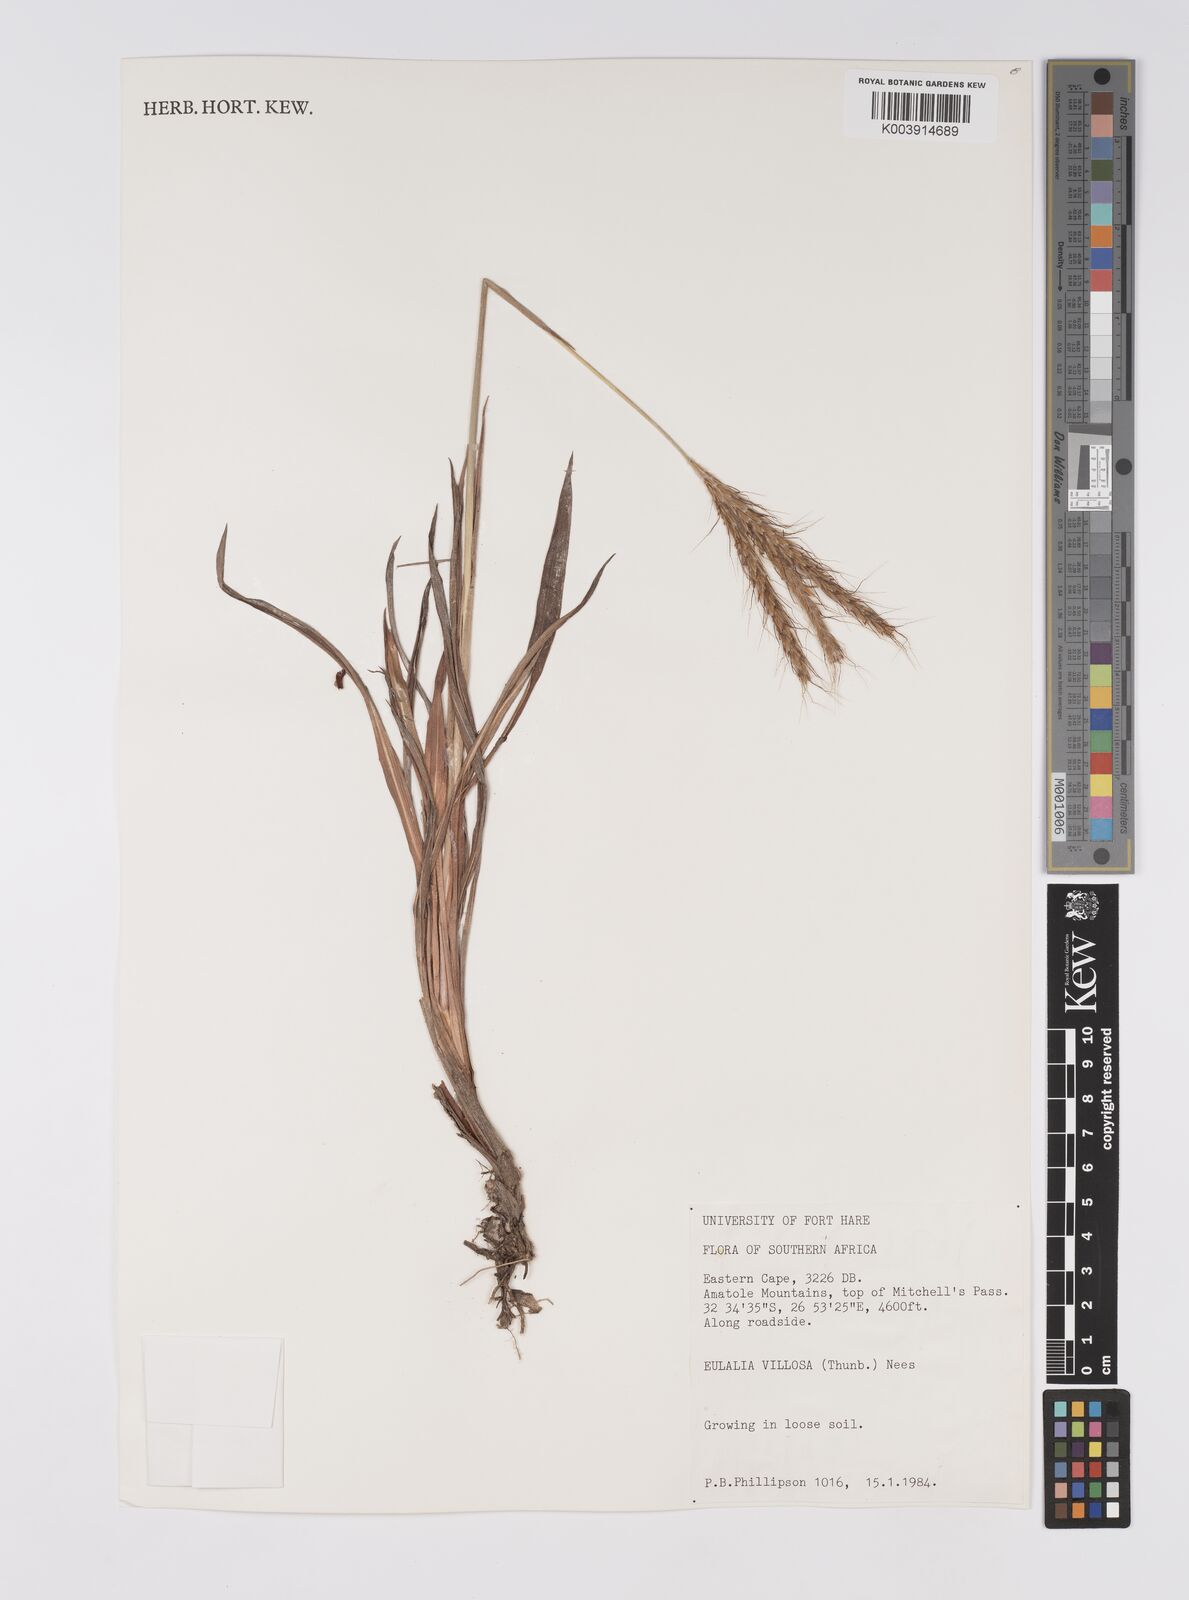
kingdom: Plantae
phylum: Tracheophyta
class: Liliopsida
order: Poales
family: Poaceae
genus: Eulalia
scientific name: Eulalia villosa
